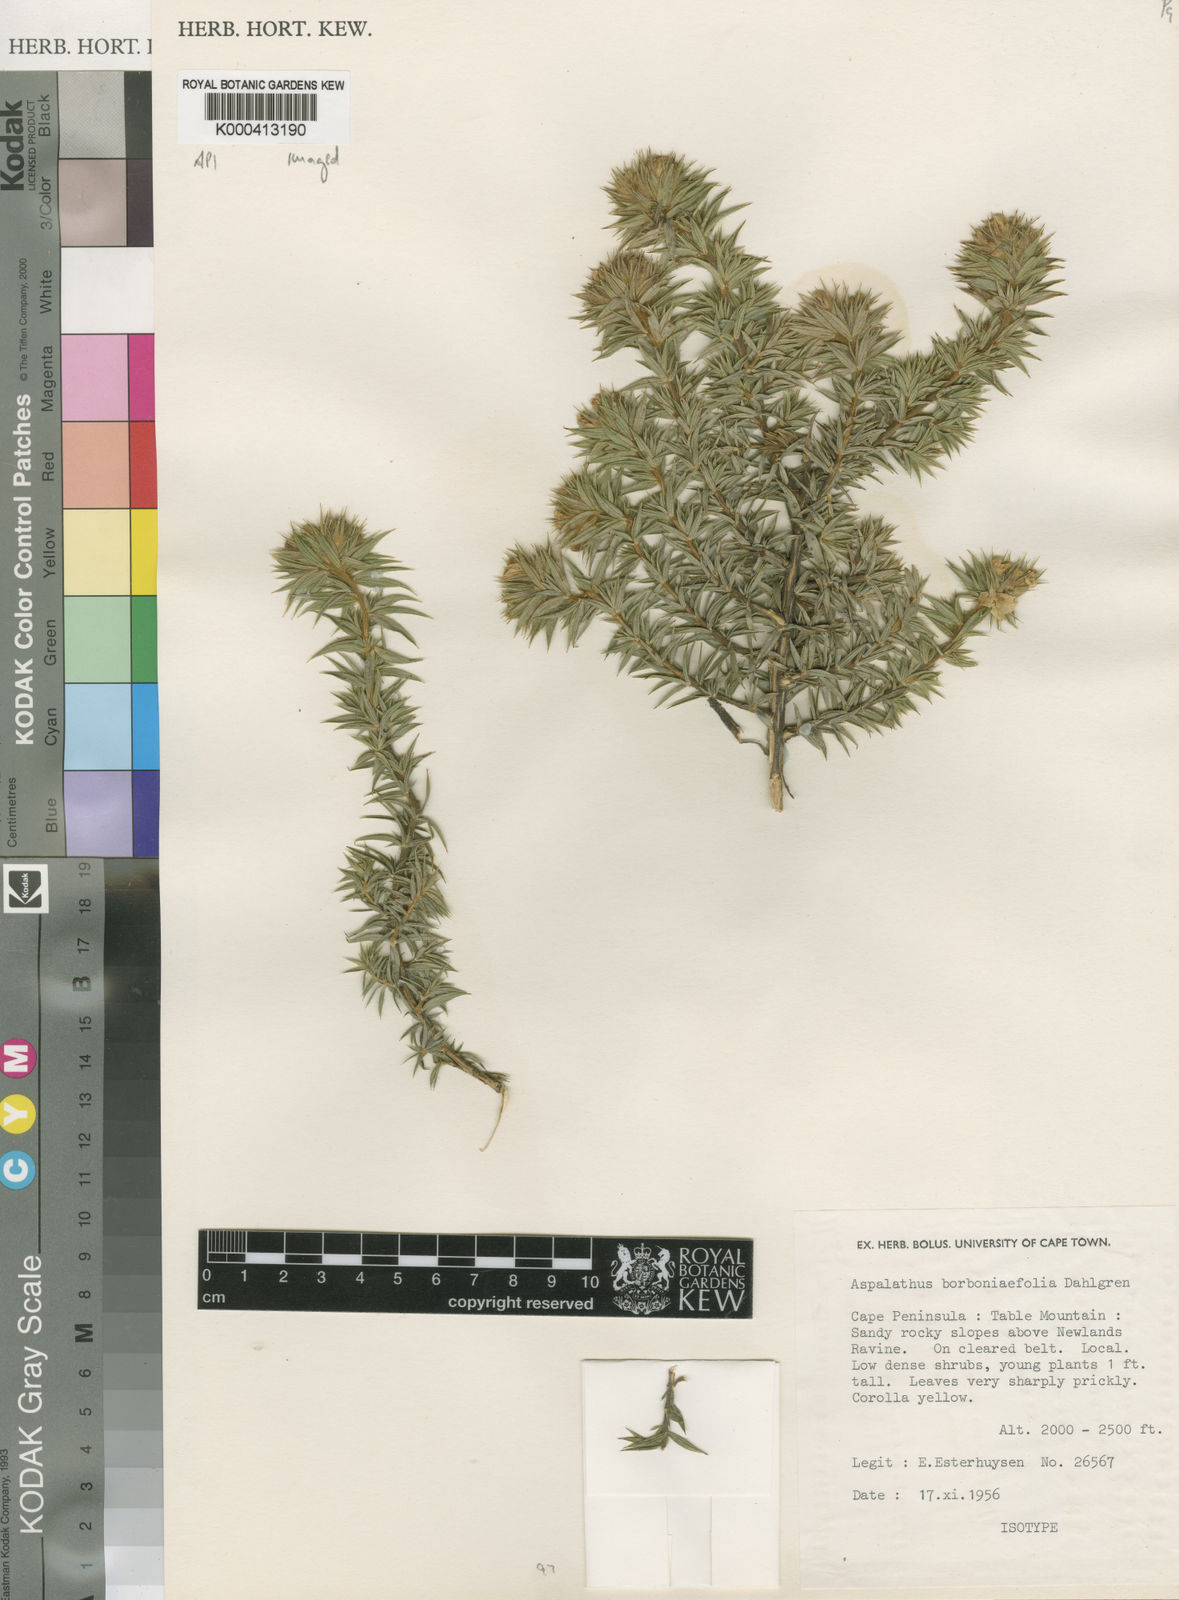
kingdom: Plantae
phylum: Tracheophyta
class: Magnoliopsida
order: Fabales
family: Fabaceae
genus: Aspalathus
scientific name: Aspalathus borboniifolia
